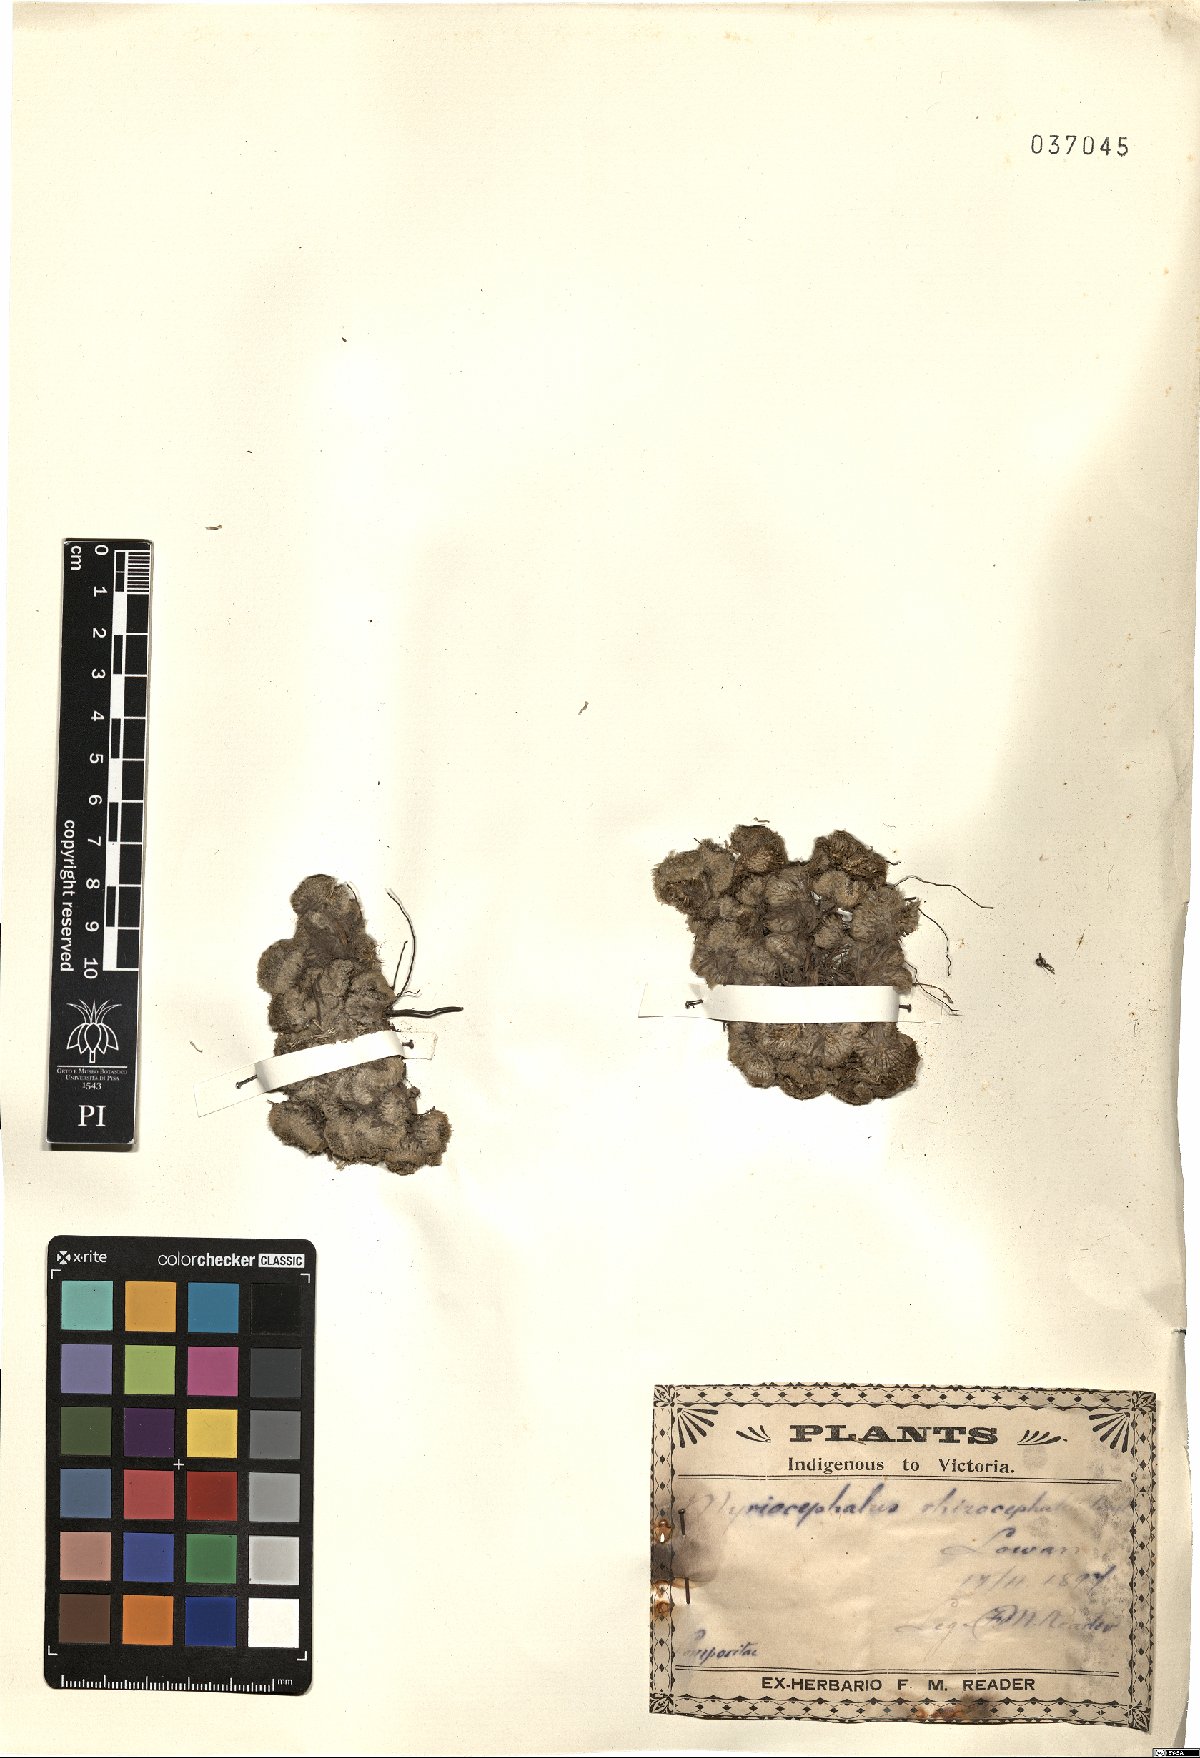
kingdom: Plantae
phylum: Tracheophyta
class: Magnoliopsida
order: Asterales
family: Asteraceae
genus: Myriocephalus
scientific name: Myriocephalus rhizocephalus
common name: Tufted woolly-heads
